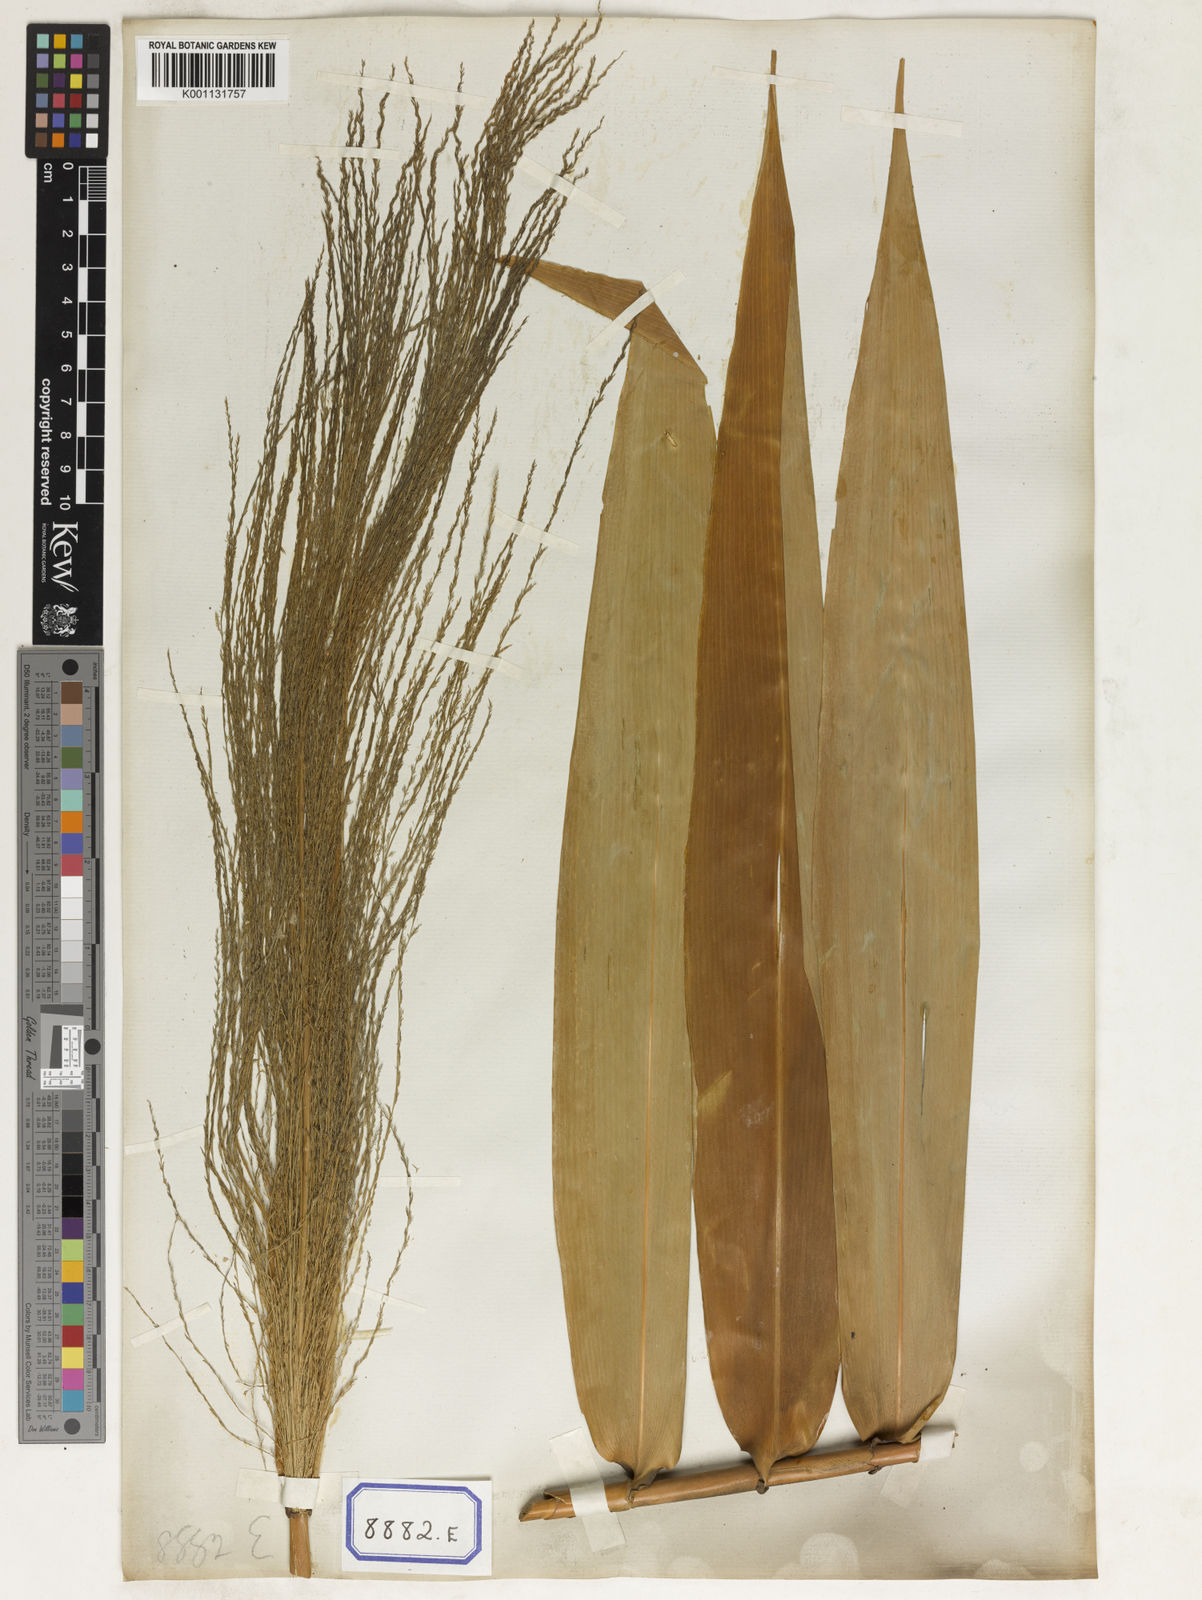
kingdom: Plantae
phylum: Tracheophyta
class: Liliopsida
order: Poales
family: Poaceae
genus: Thysanolaena
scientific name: Thysanolaena latifolia
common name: Tiger grass
